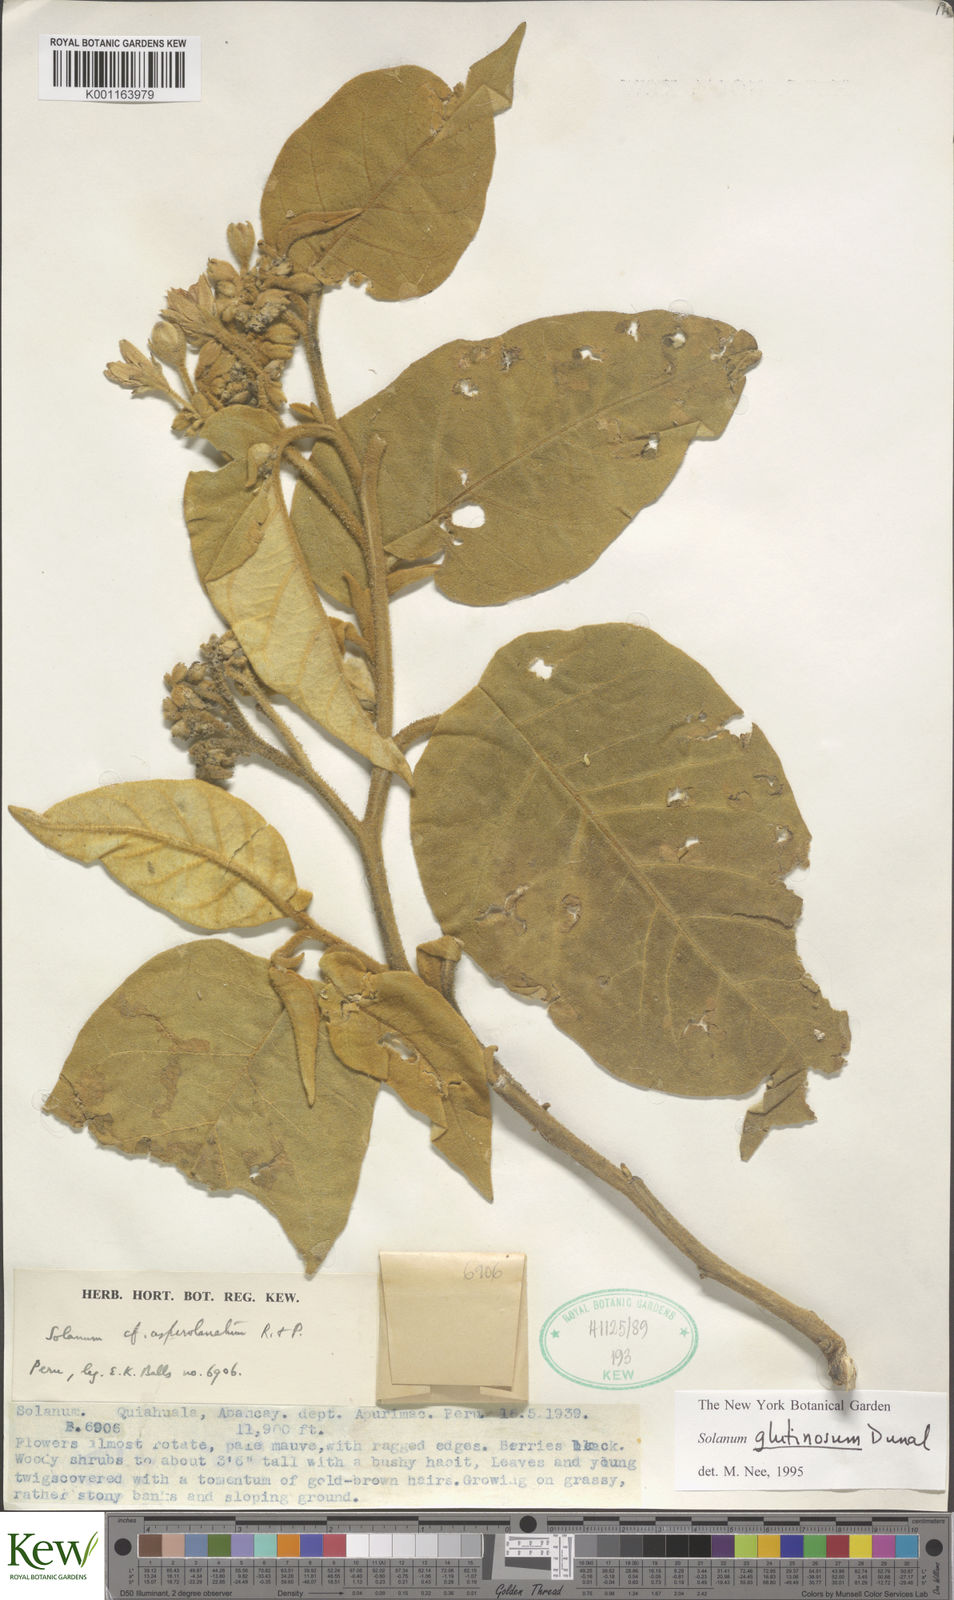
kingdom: Plantae
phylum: Tracheophyta
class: Magnoliopsida
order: Solanales
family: Solanaceae
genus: Solanum
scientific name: Solanum glutinosum
